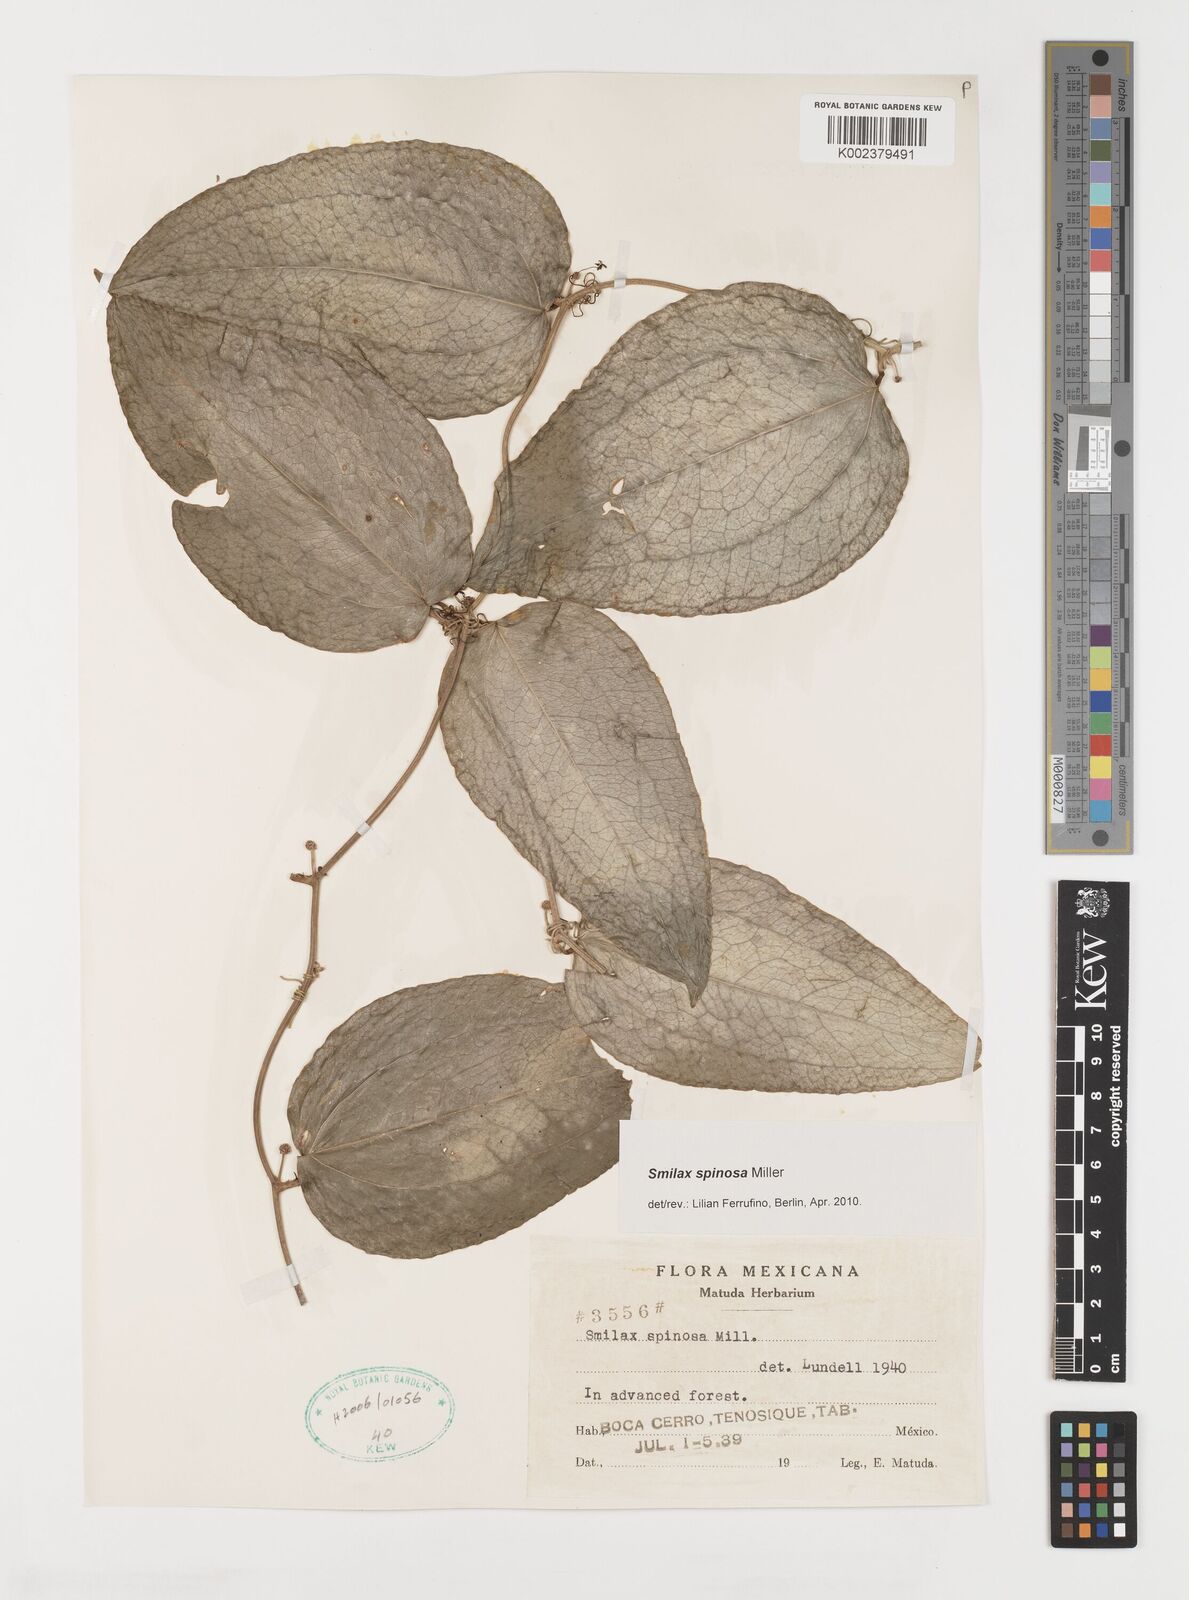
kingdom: Plantae
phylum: Tracheophyta
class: Liliopsida
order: Liliales
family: Smilacaceae
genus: Smilax
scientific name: Smilax spinosa
